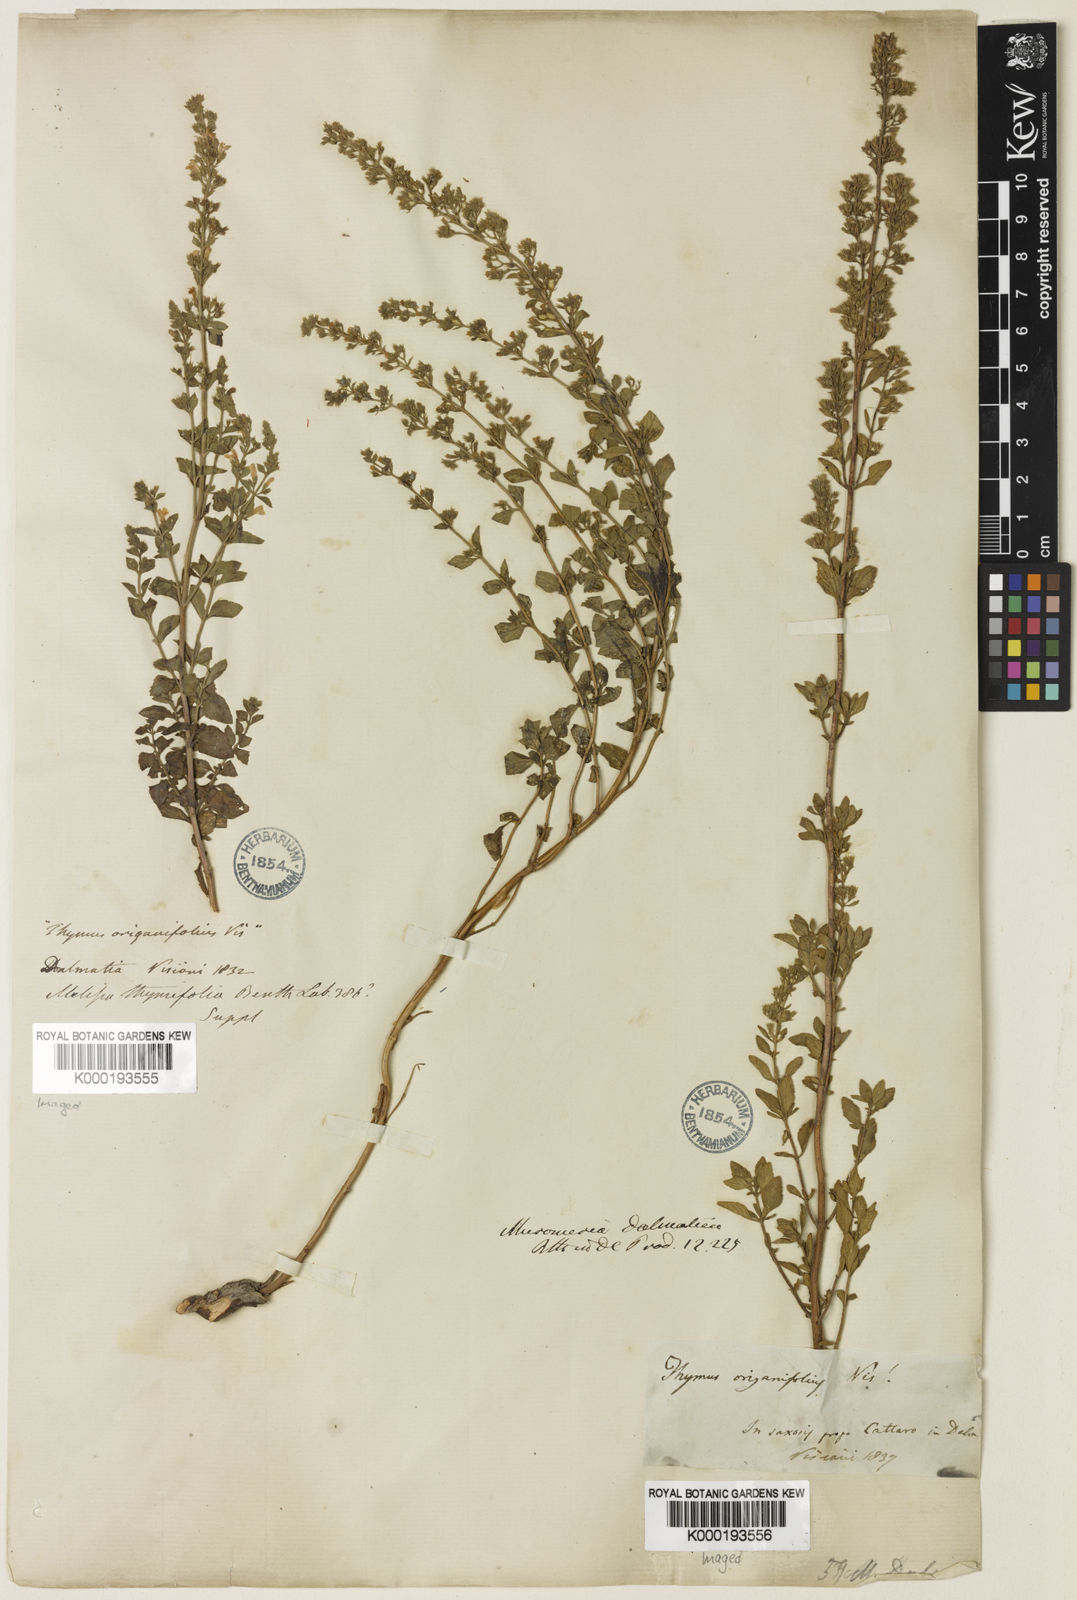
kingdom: Plantae
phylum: Tracheophyta
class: Magnoliopsida
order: Lamiales
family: Lamiaceae
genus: Clinopodium
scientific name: Clinopodium dalmaticum
